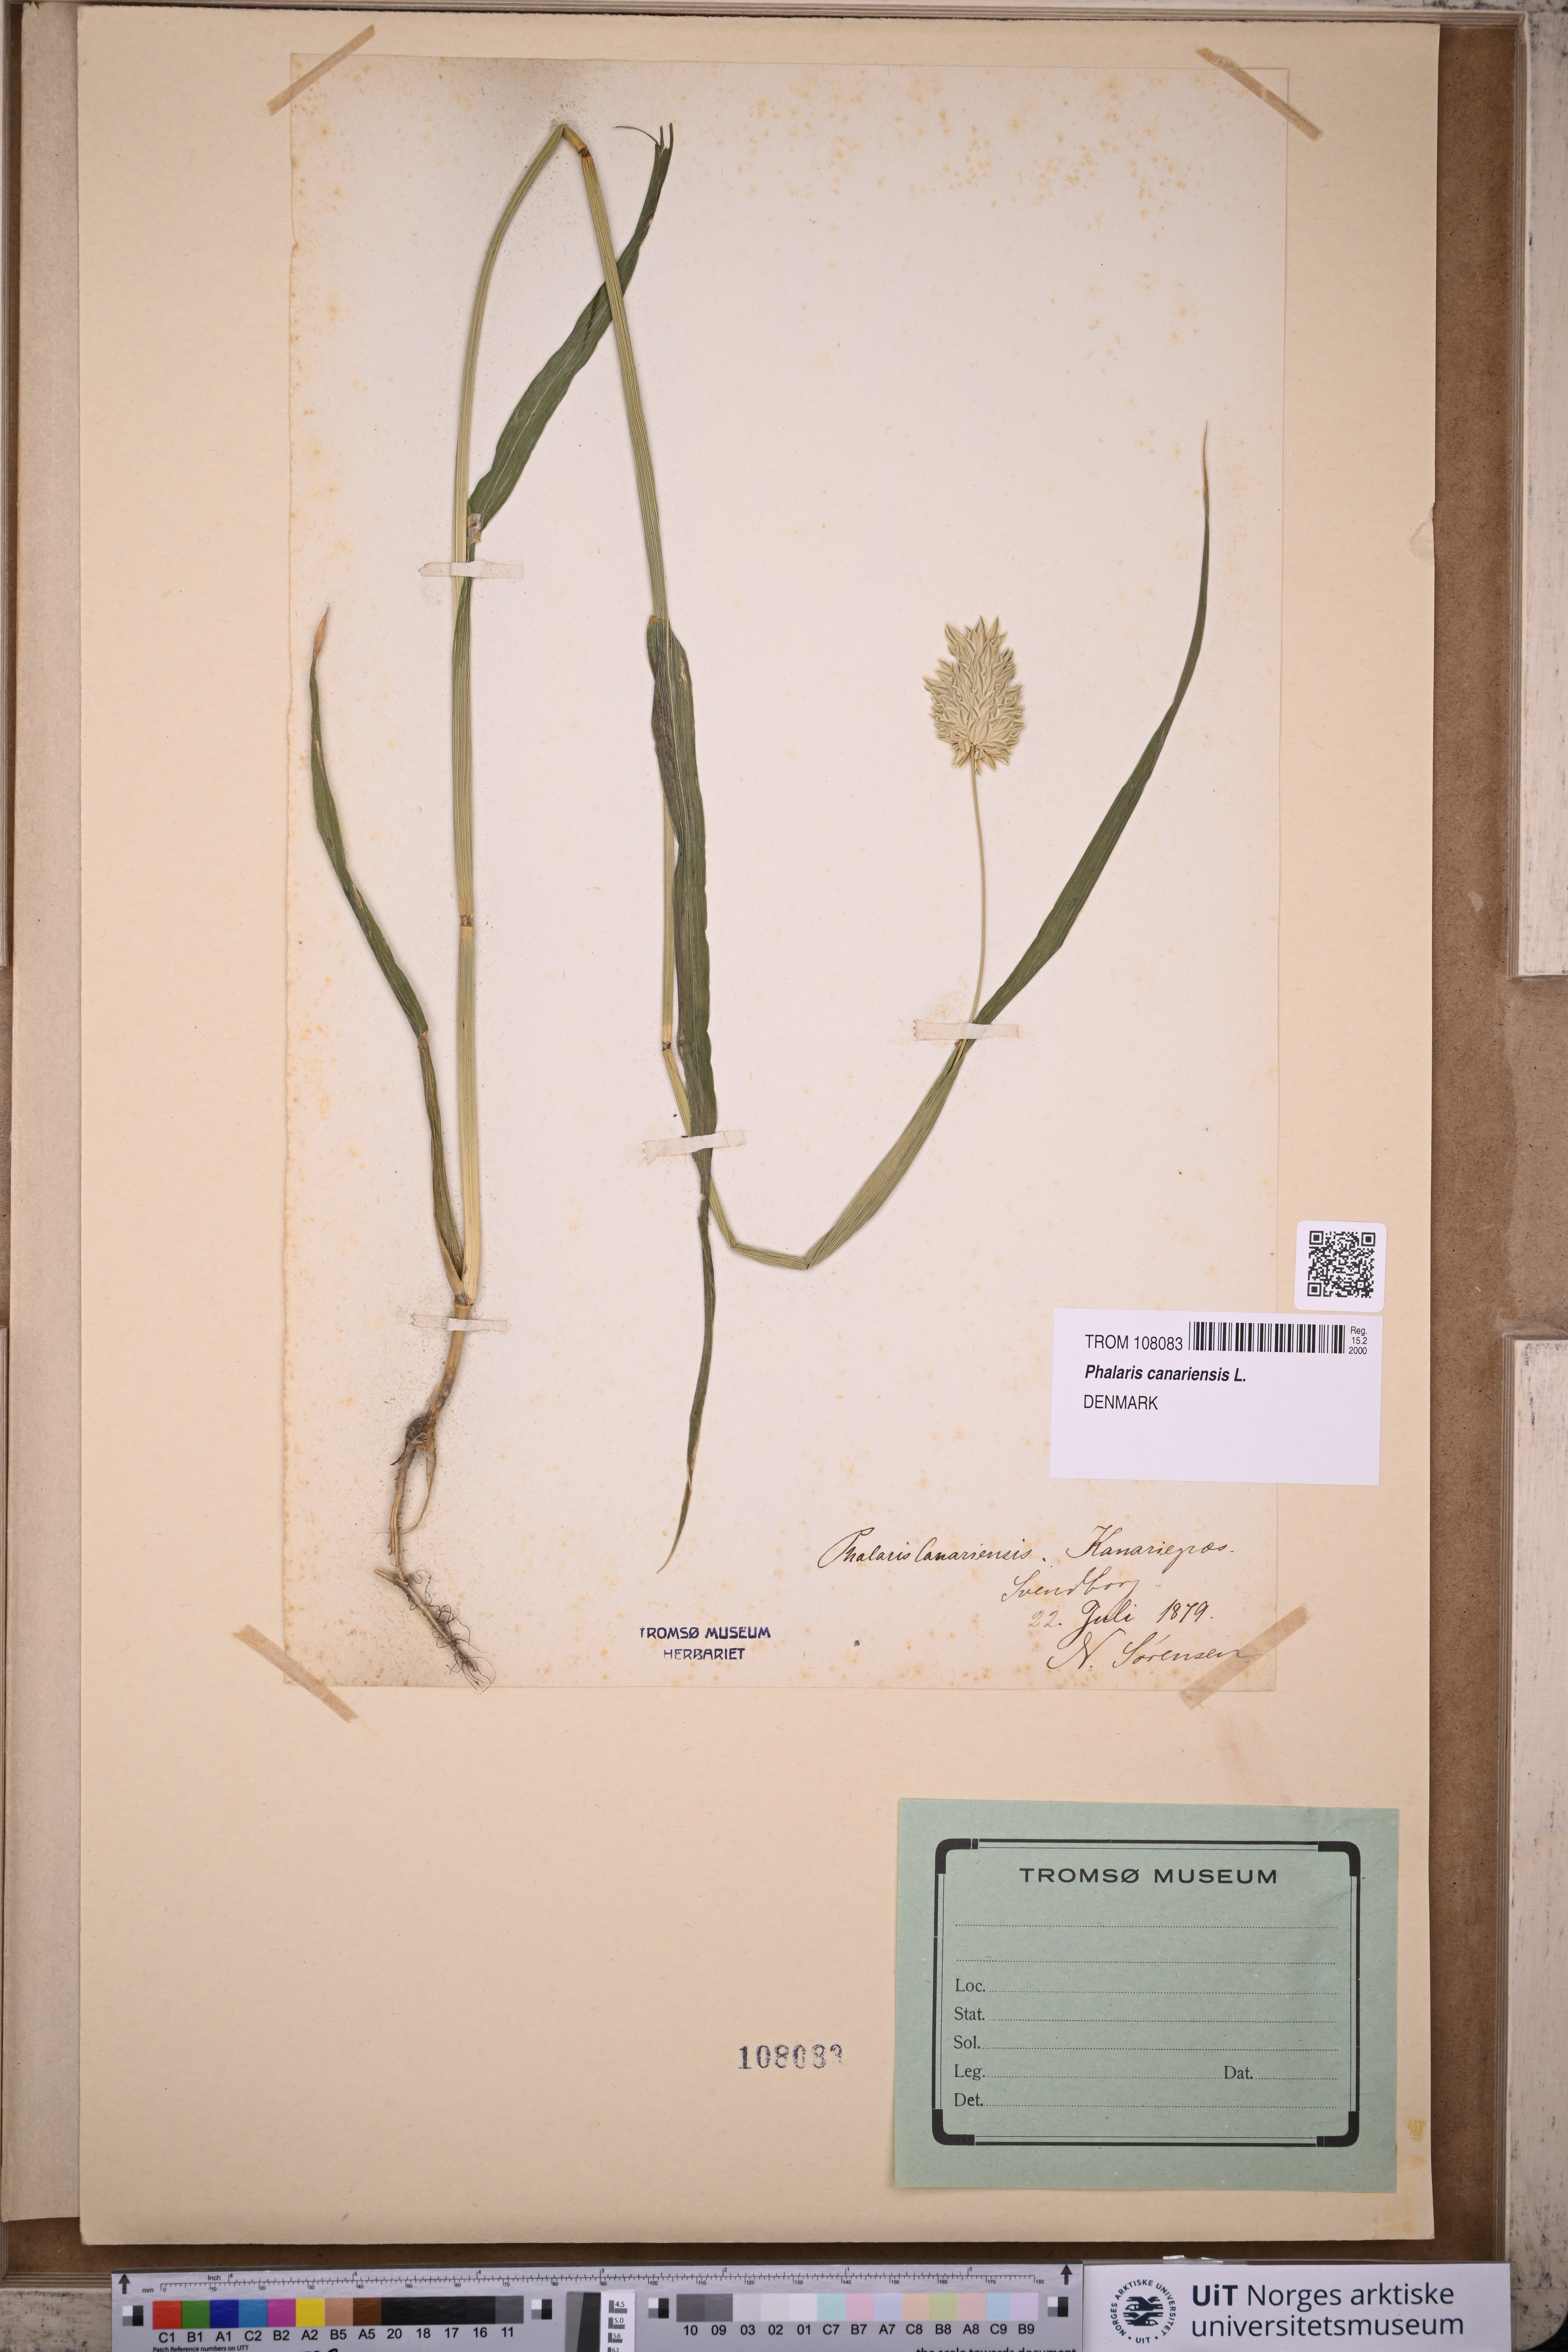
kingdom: Plantae
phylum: Tracheophyta
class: Liliopsida
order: Poales
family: Poaceae
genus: Phalaris
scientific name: Phalaris canariensis
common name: Annual canarygrass
